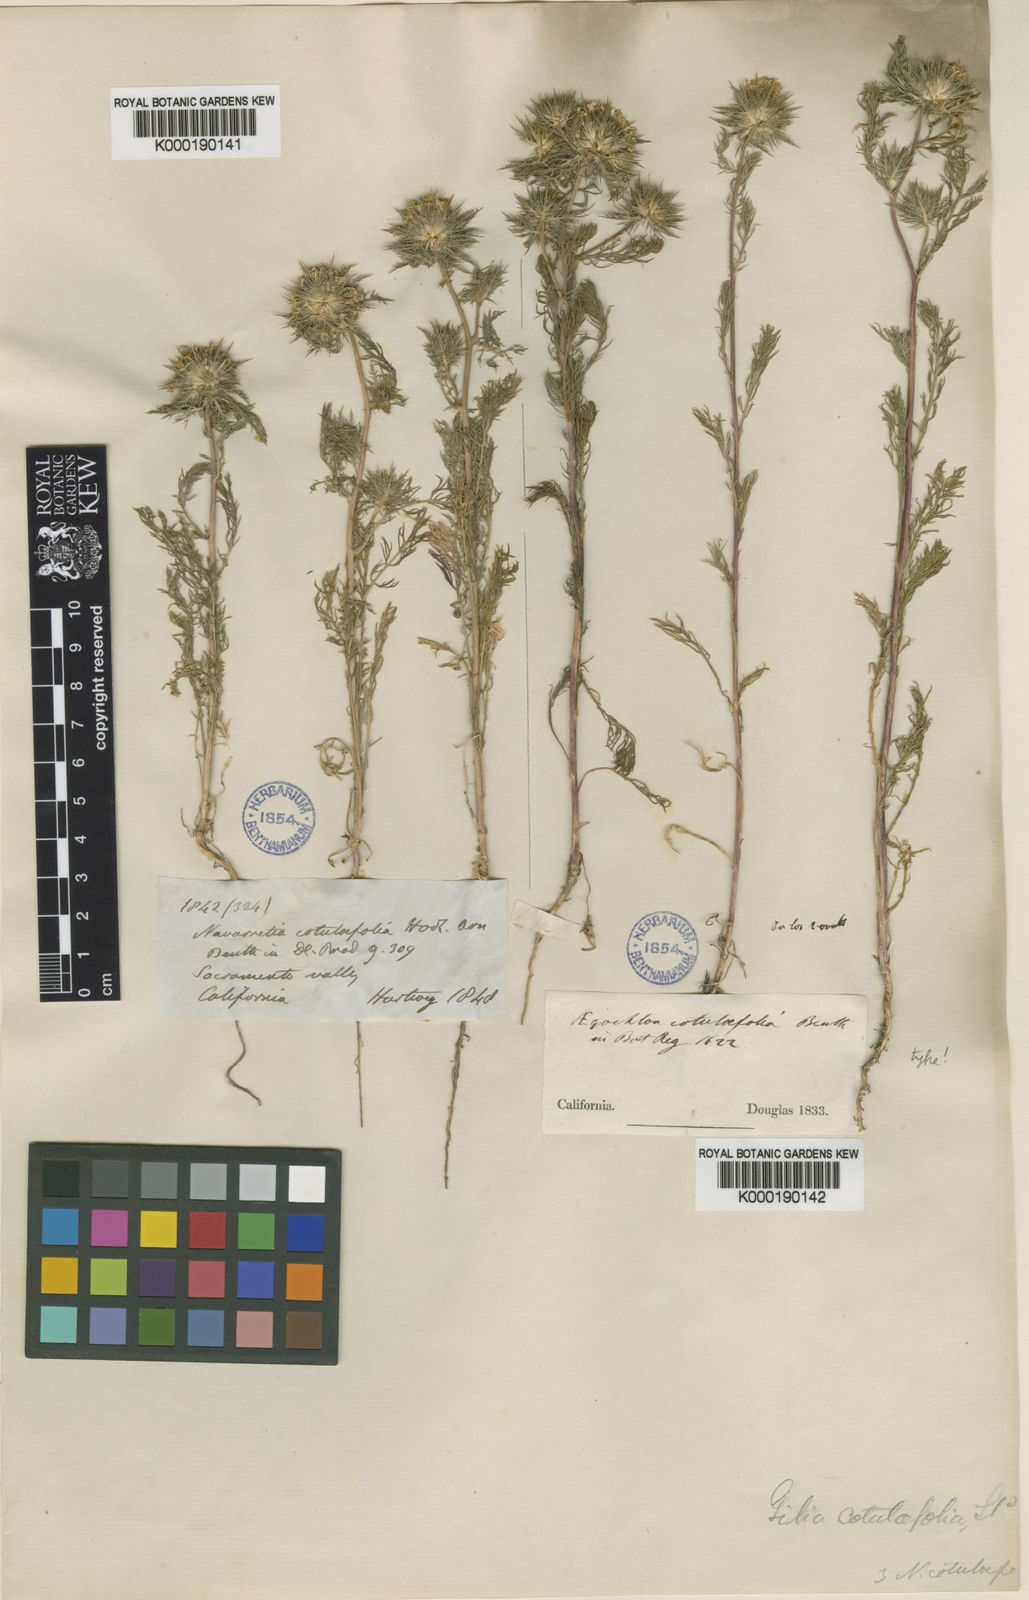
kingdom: Plantae
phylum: Tracheophyta
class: Magnoliopsida
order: Ericales
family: Polemoniaceae
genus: Navarretia
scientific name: Navarretia cotulifolia
